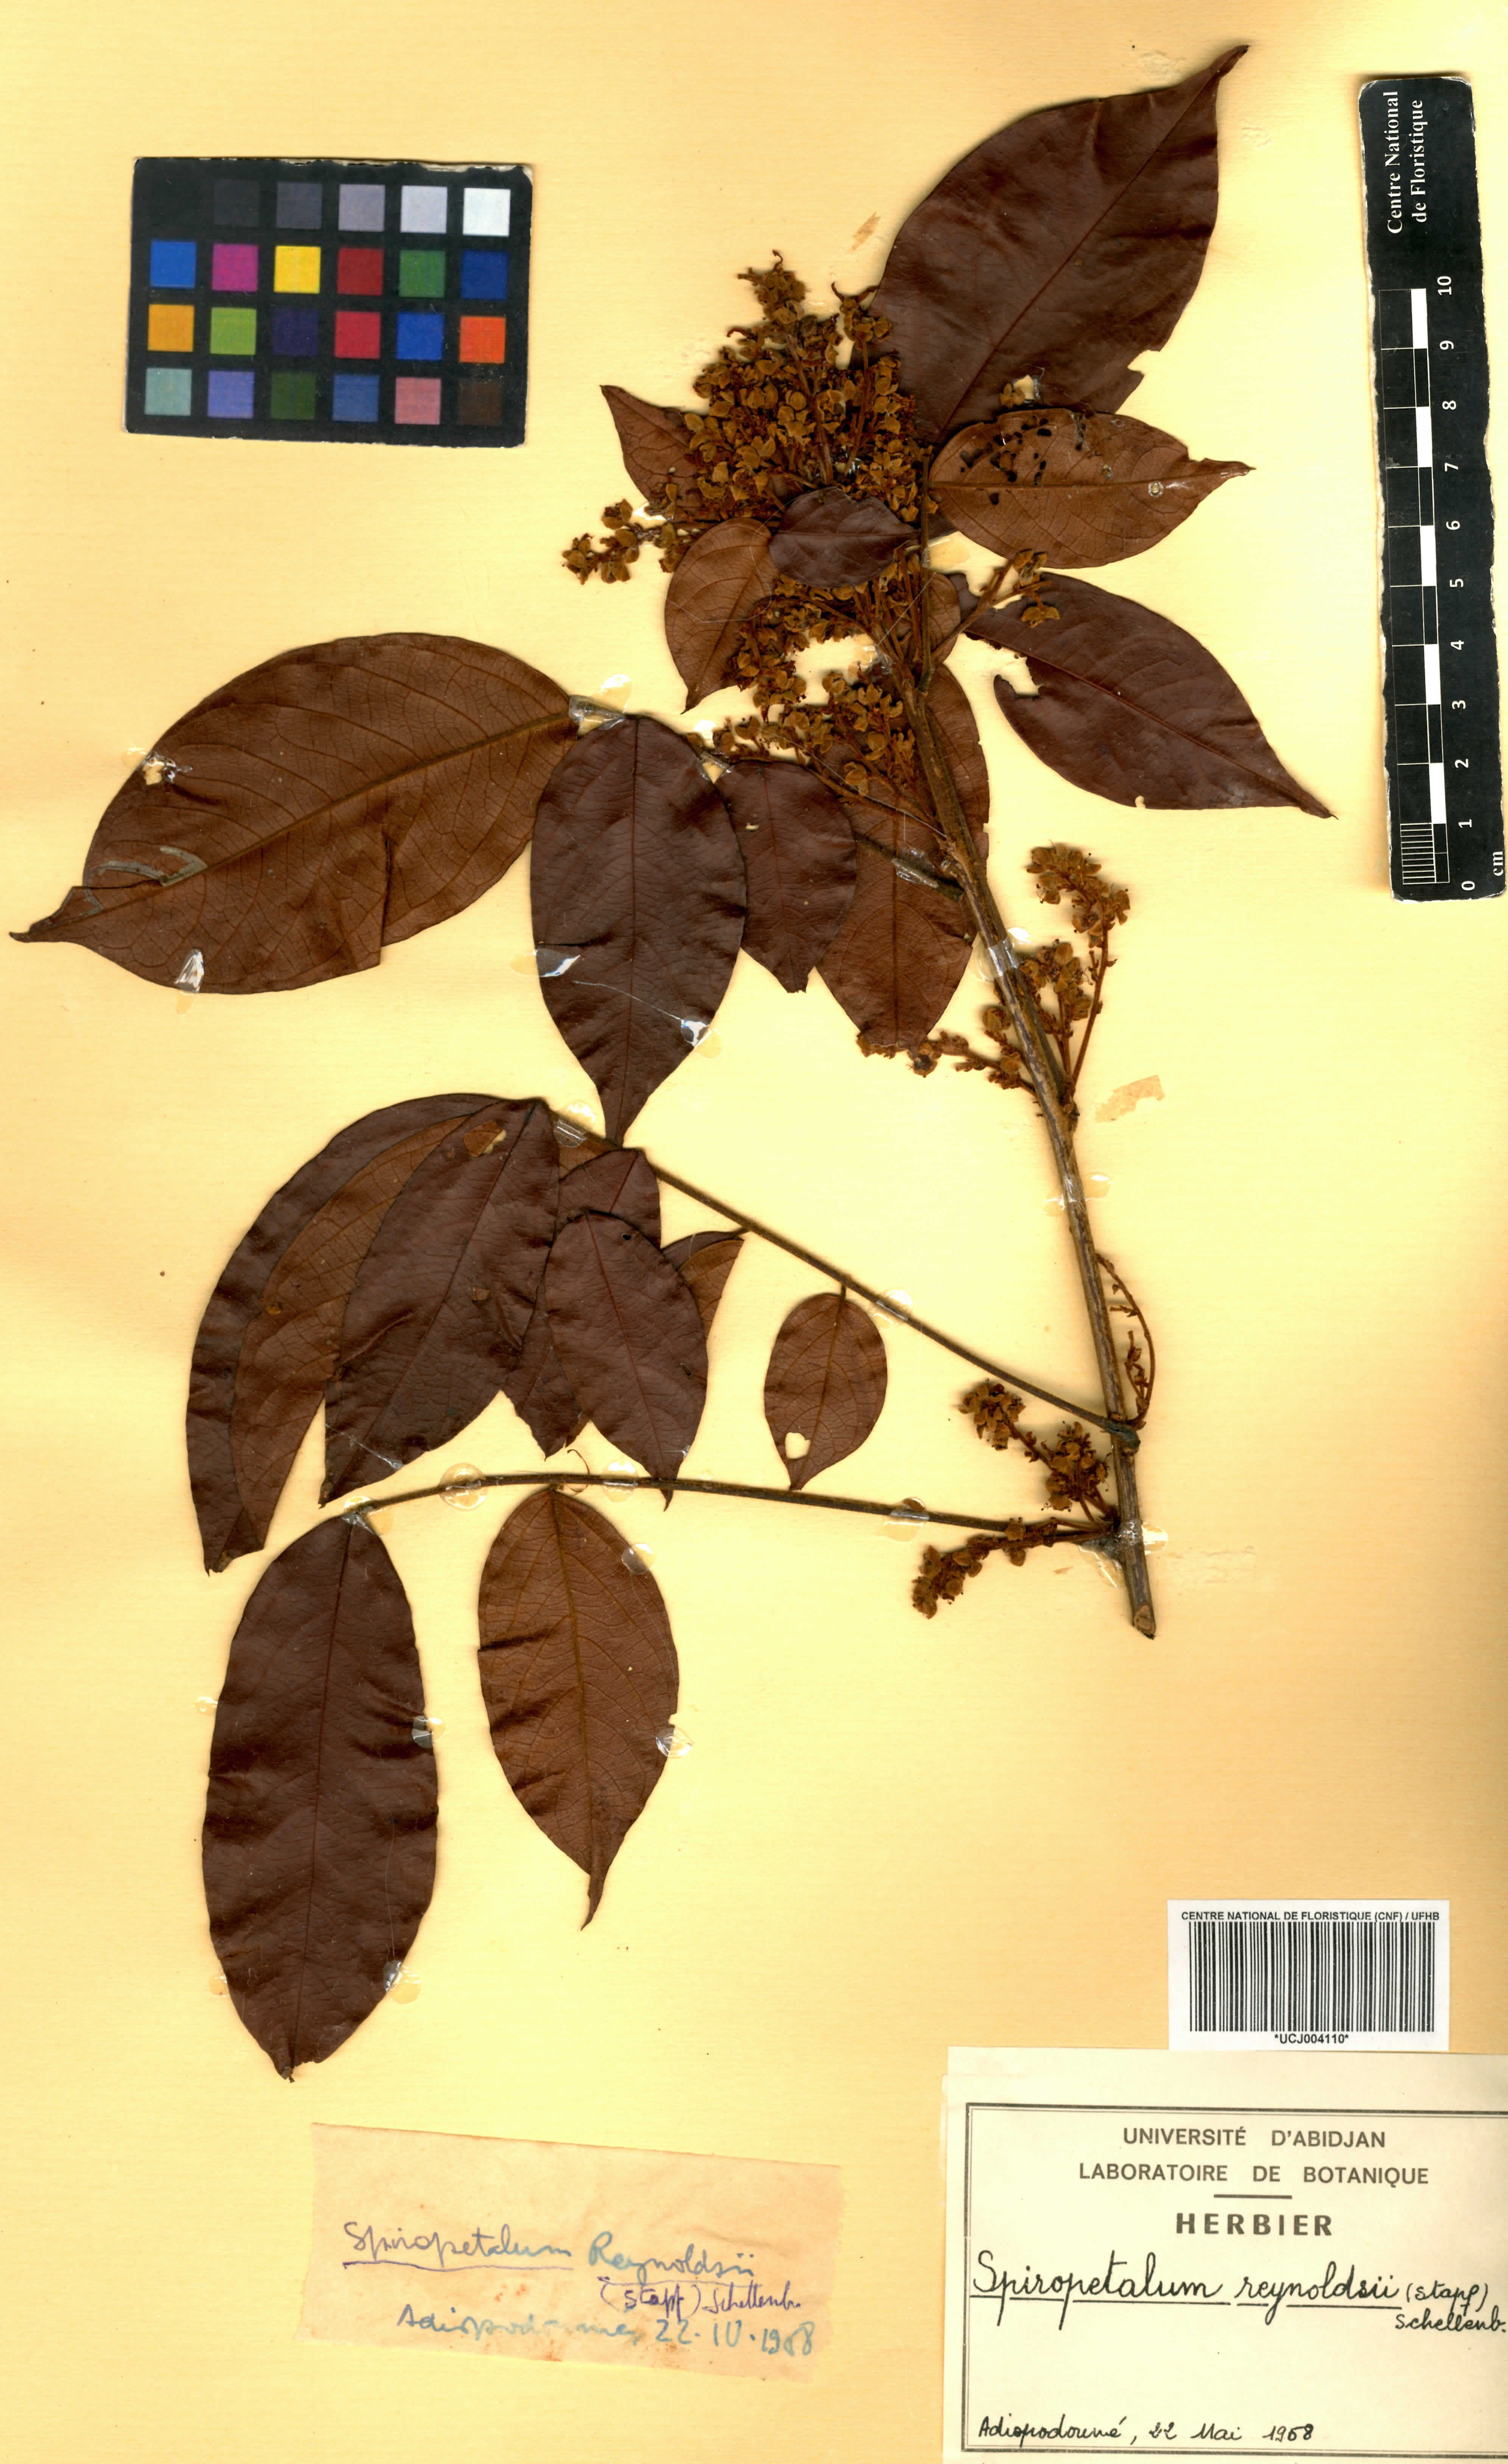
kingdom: Plantae
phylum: Tracheophyta
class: Magnoliopsida
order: Oxalidales
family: Connaraceae
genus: Rourea
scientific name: Rourea solanderi
